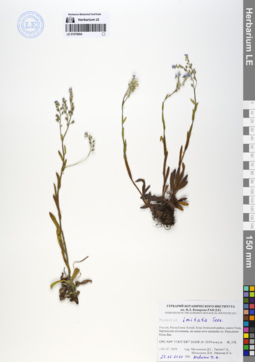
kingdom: Plantae
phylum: Tracheophyta
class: Magnoliopsida
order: Boraginales
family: Boraginaceae
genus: Myosotis
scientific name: Myosotis imitata
